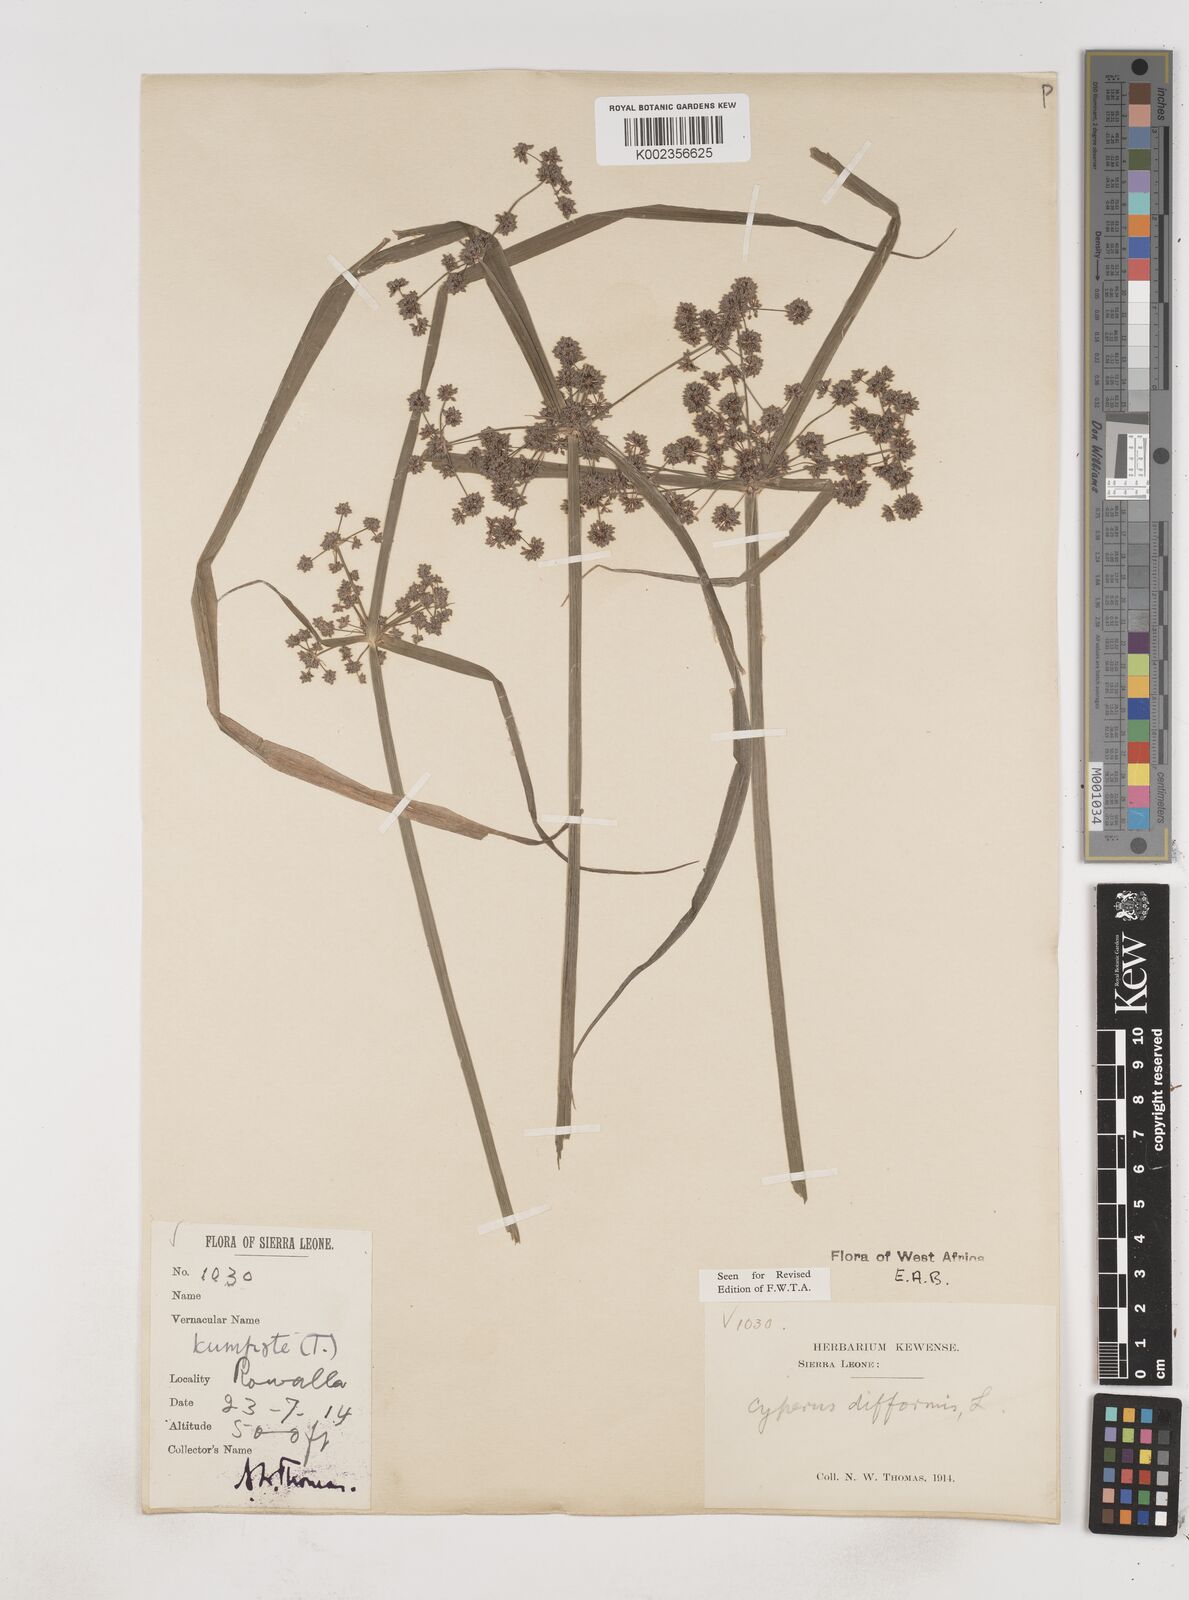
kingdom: Plantae
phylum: Tracheophyta
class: Liliopsida
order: Poales
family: Cyperaceae
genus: Cyperus
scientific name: Cyperus difformis
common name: Variable flatsedge
